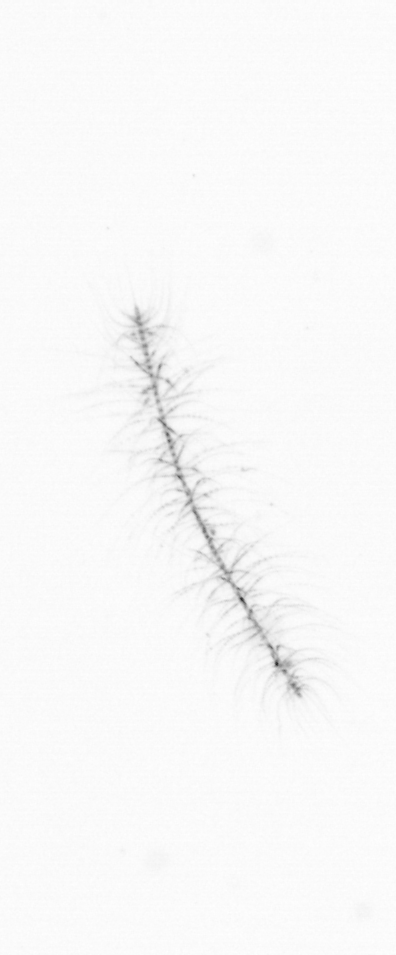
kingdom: Chromista
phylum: Ochrophyta
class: Bacillariophyceae
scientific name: Bacillariophyceae
